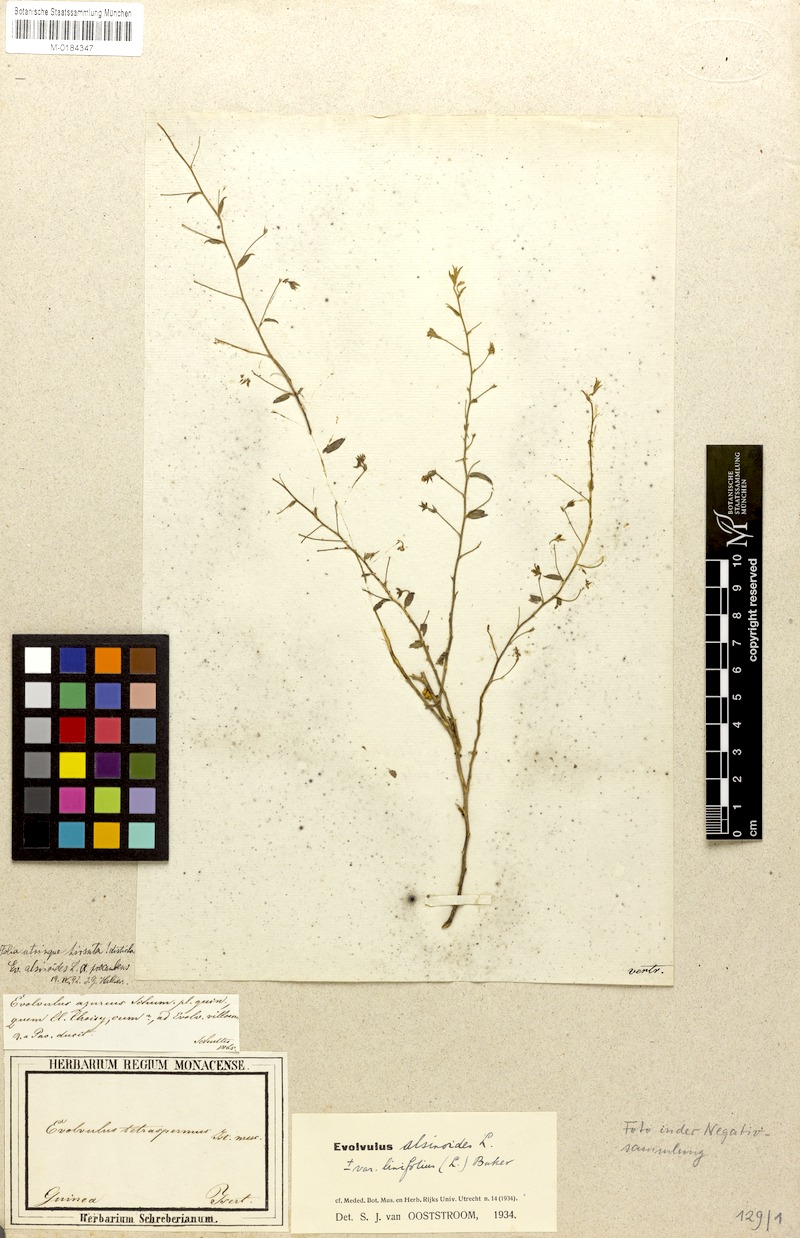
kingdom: Plantae
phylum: Tracheophyta
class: Magnoliopsida
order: Solanales
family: Convolvulaceae
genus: Evolvulus
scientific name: Evolvulus alsinoides
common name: Slender dwarf morning-glory
